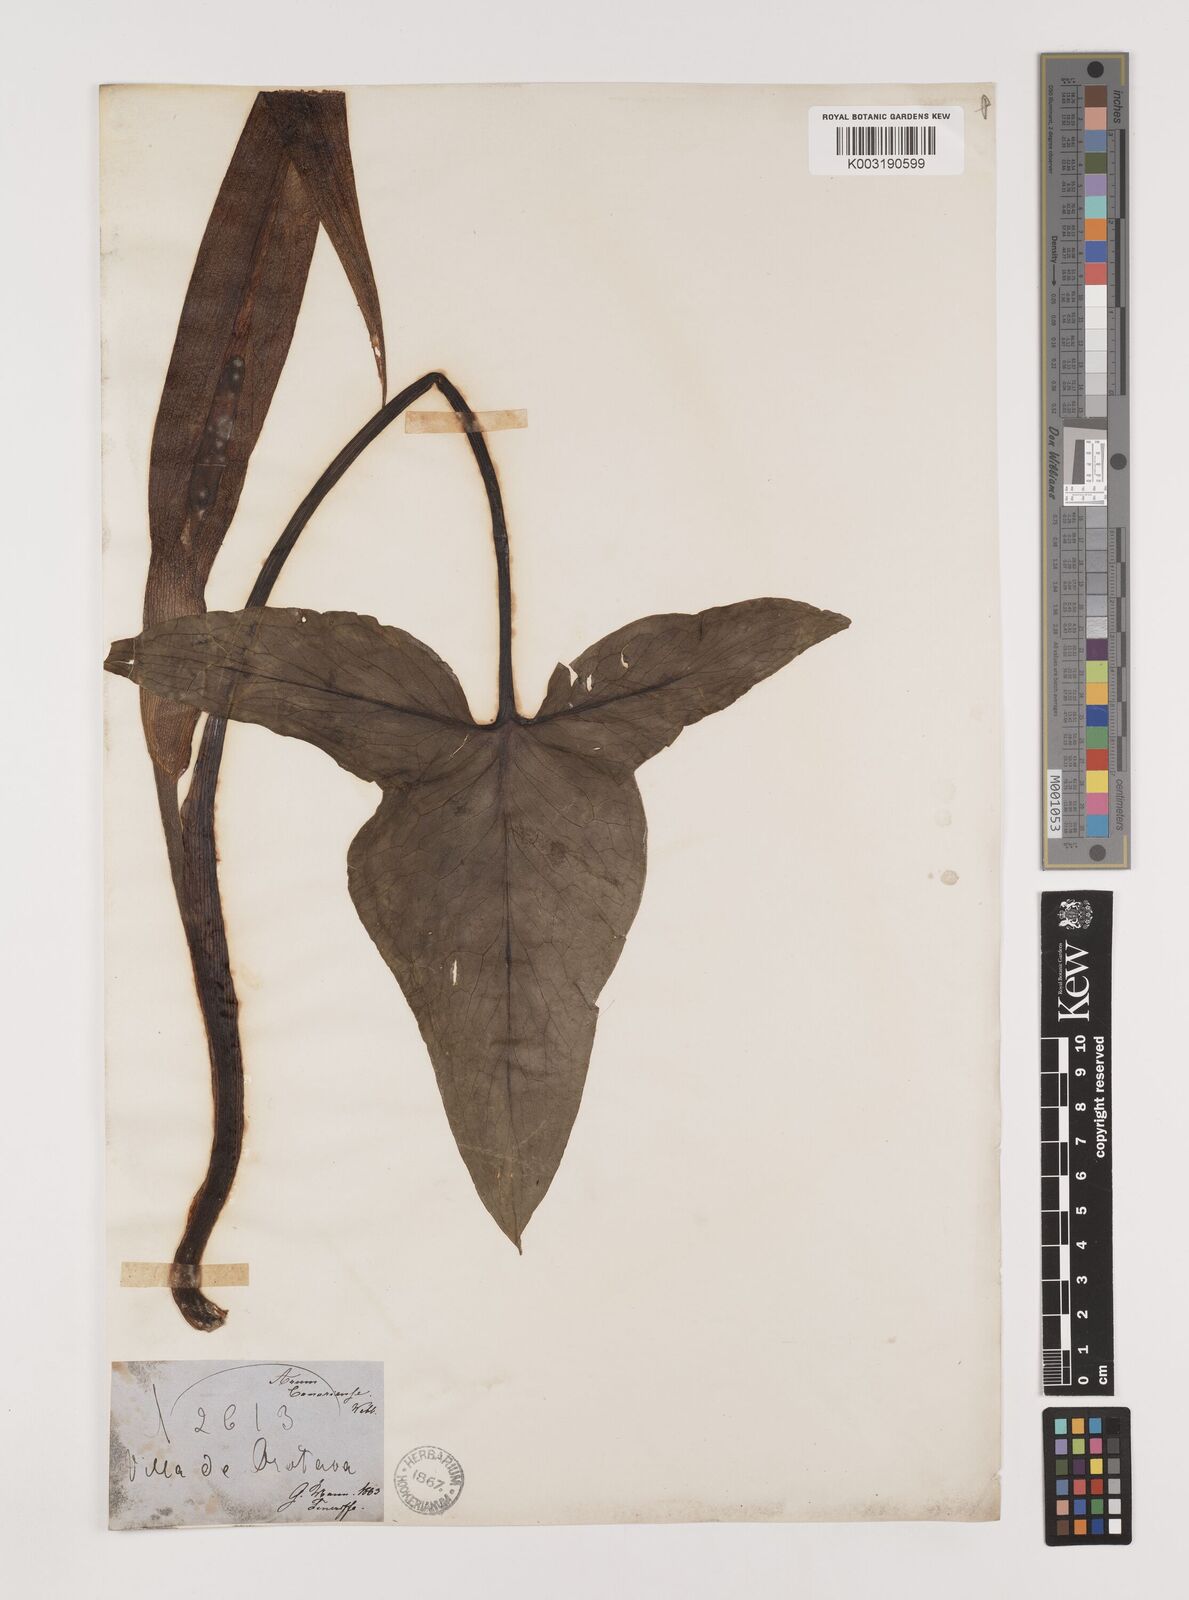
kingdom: Plantae
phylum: Tracheophyta
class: Liliopsida
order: Alismatales
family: Araceae
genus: Arum
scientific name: Arum italicum
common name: Italian lords-and-ladies
